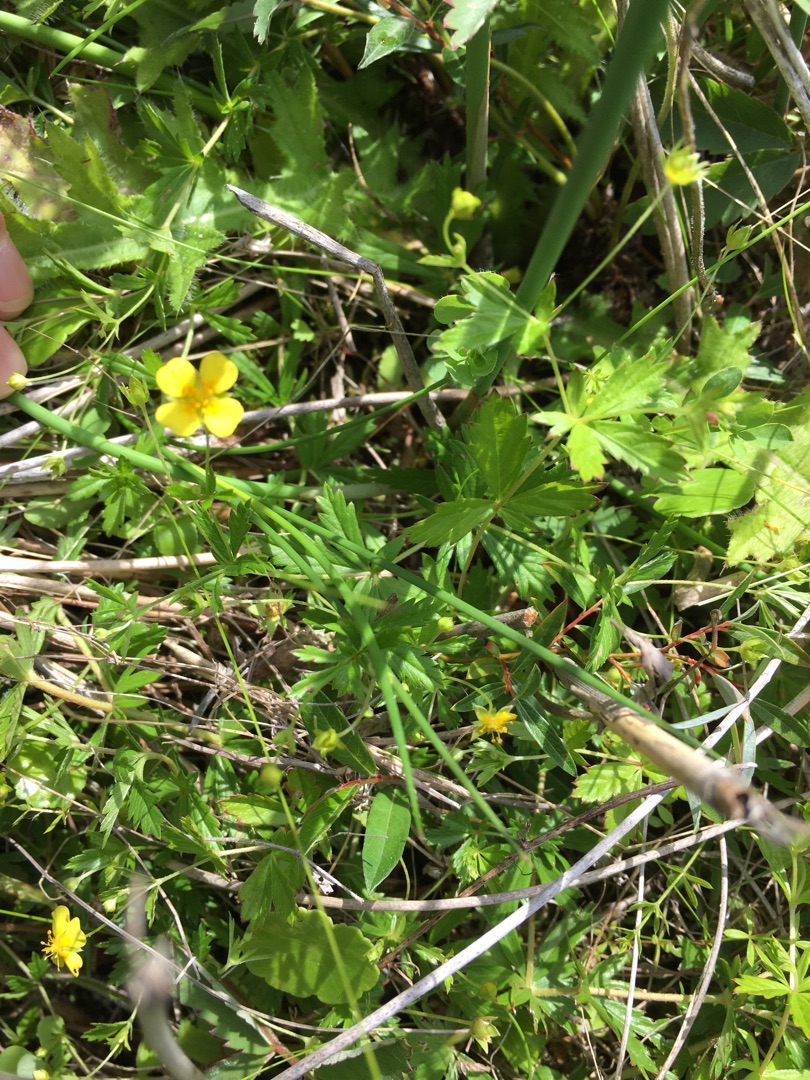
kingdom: Plantae
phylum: Tracheophyta
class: Magnoliopsida
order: Rosales
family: Rosaceae
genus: Potentilla
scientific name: Potentilla erecta
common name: Tormentil
